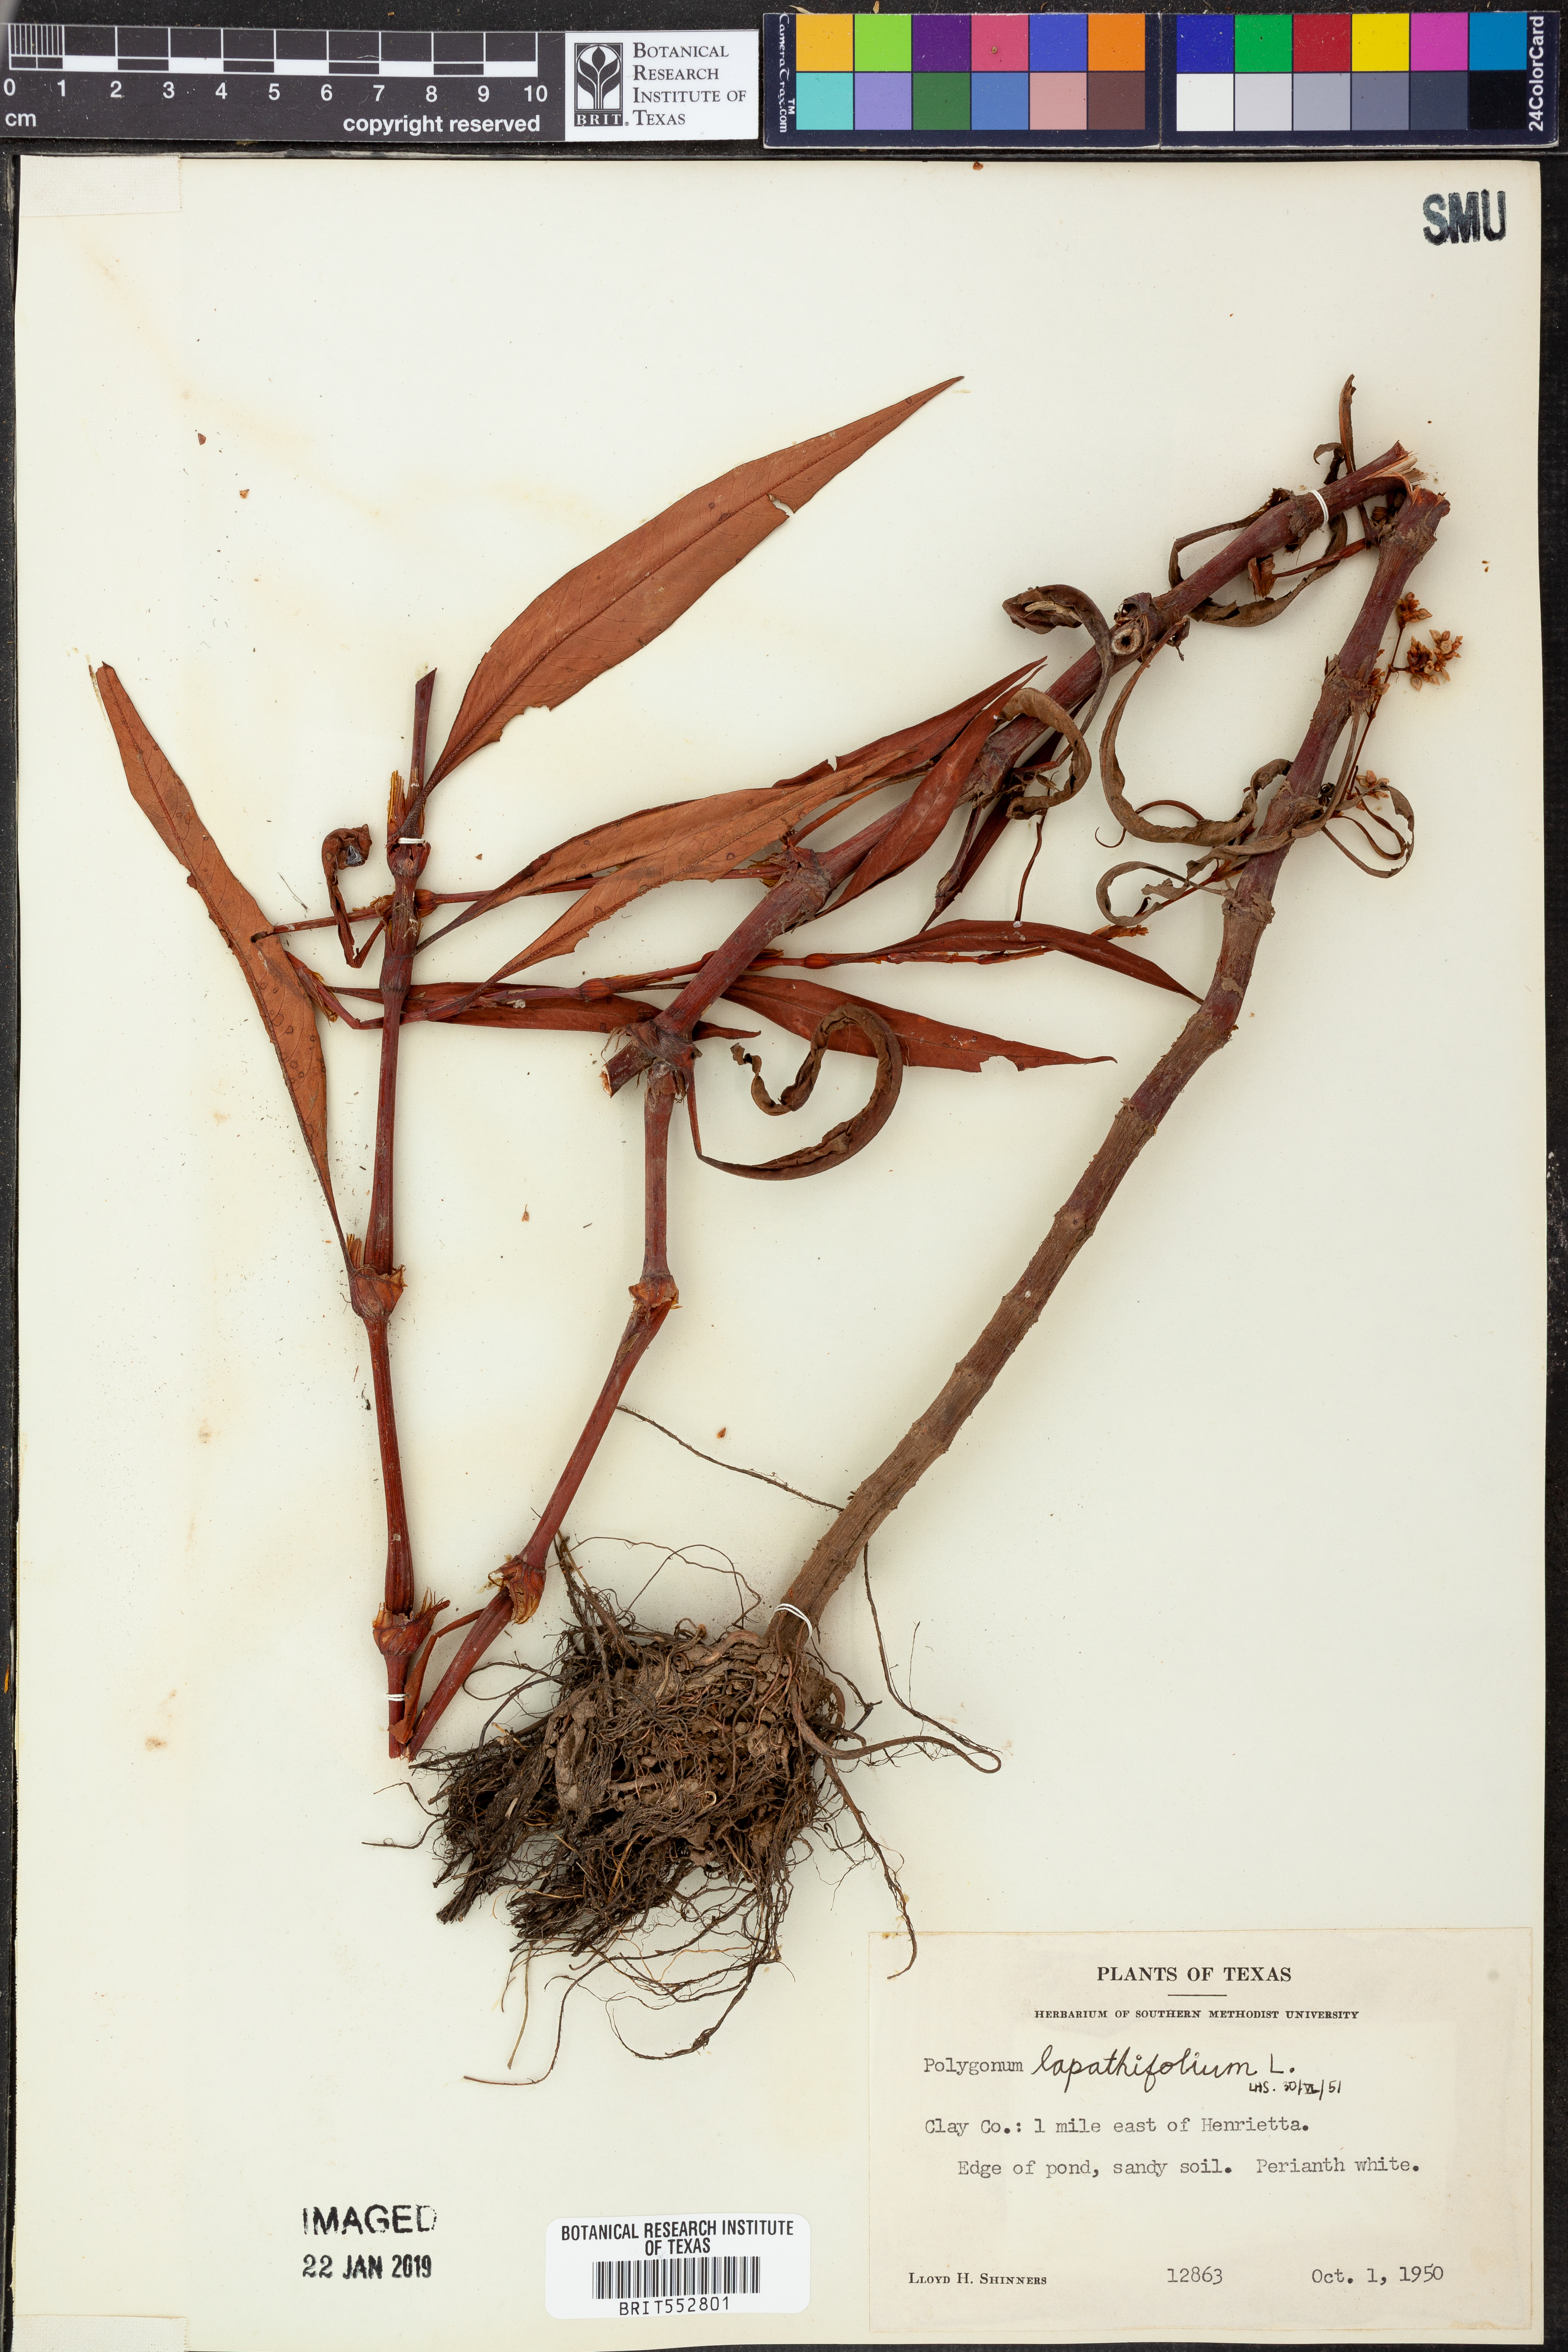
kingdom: Plantae
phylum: Tracheophyta
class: Magnoliopsida
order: Caryophyllales
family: Polygonaceae
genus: Persicaria
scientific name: Persicaria lapathifolia
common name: Curlytop knotweed
